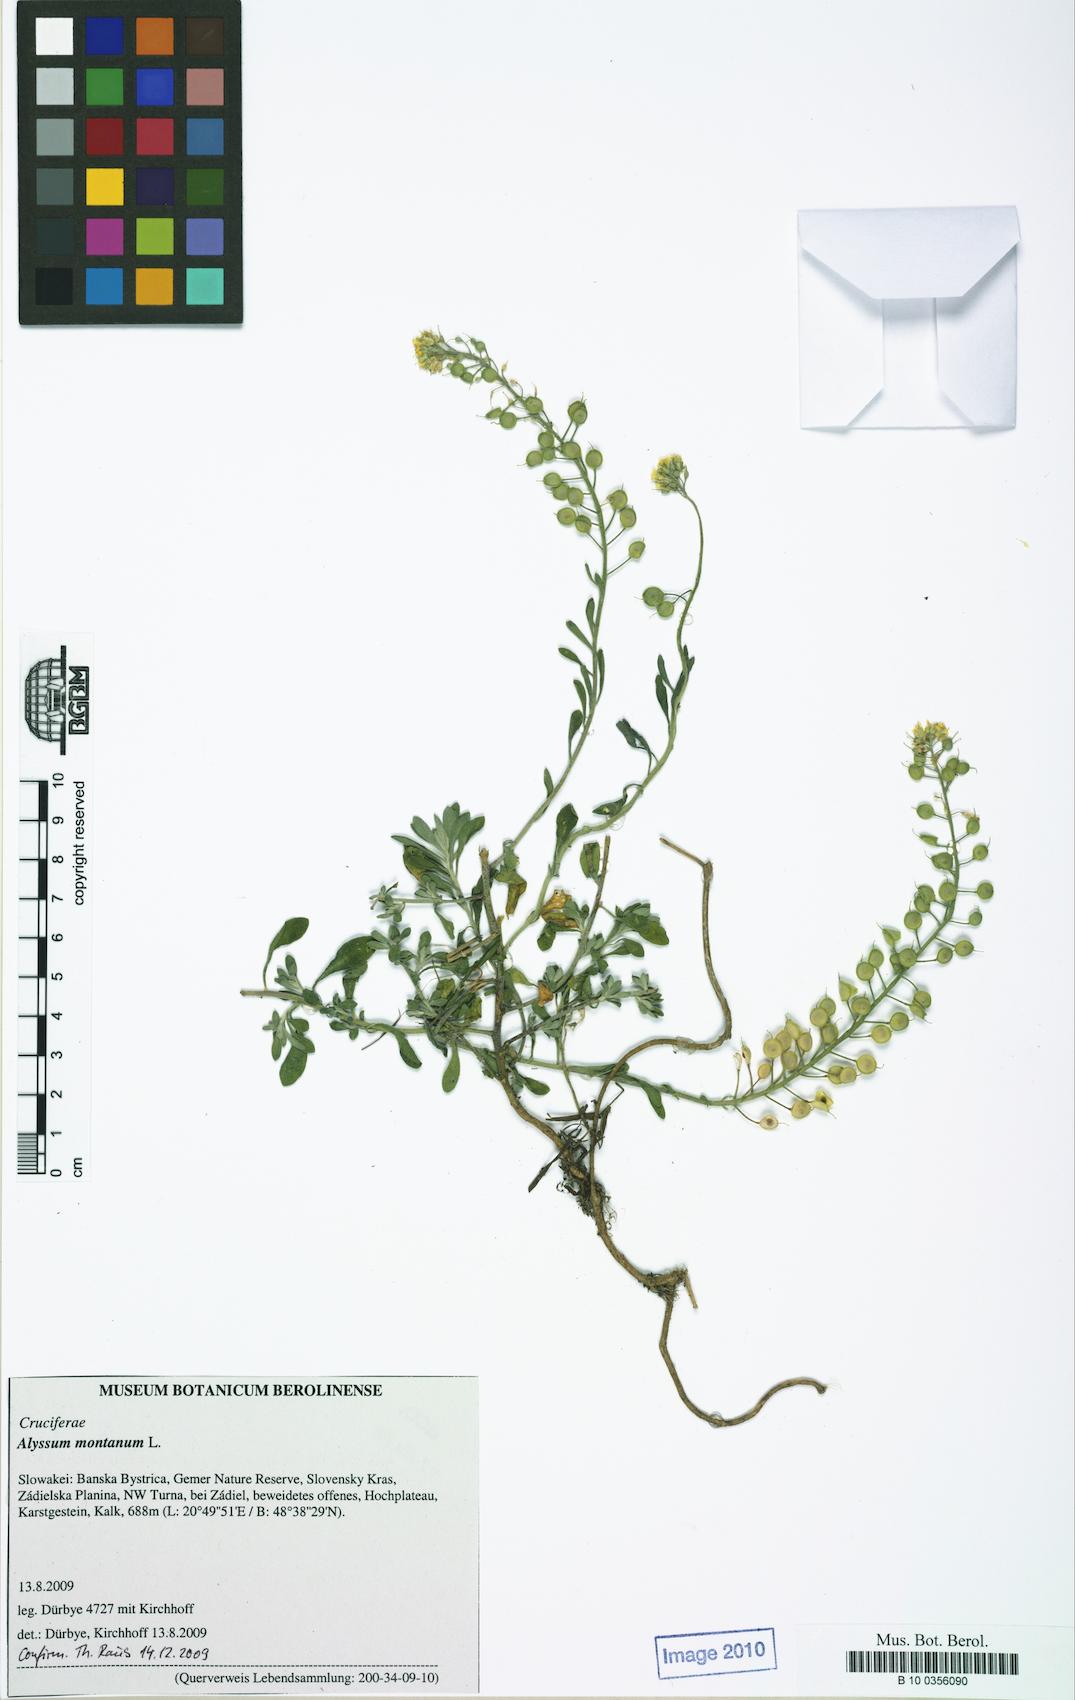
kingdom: Plantae
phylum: Tracheophyta
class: Magnoliopsida
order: Brassicales
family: Brassicaceae
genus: Alyssum
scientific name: Alyssum montanum
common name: Mountain alison
